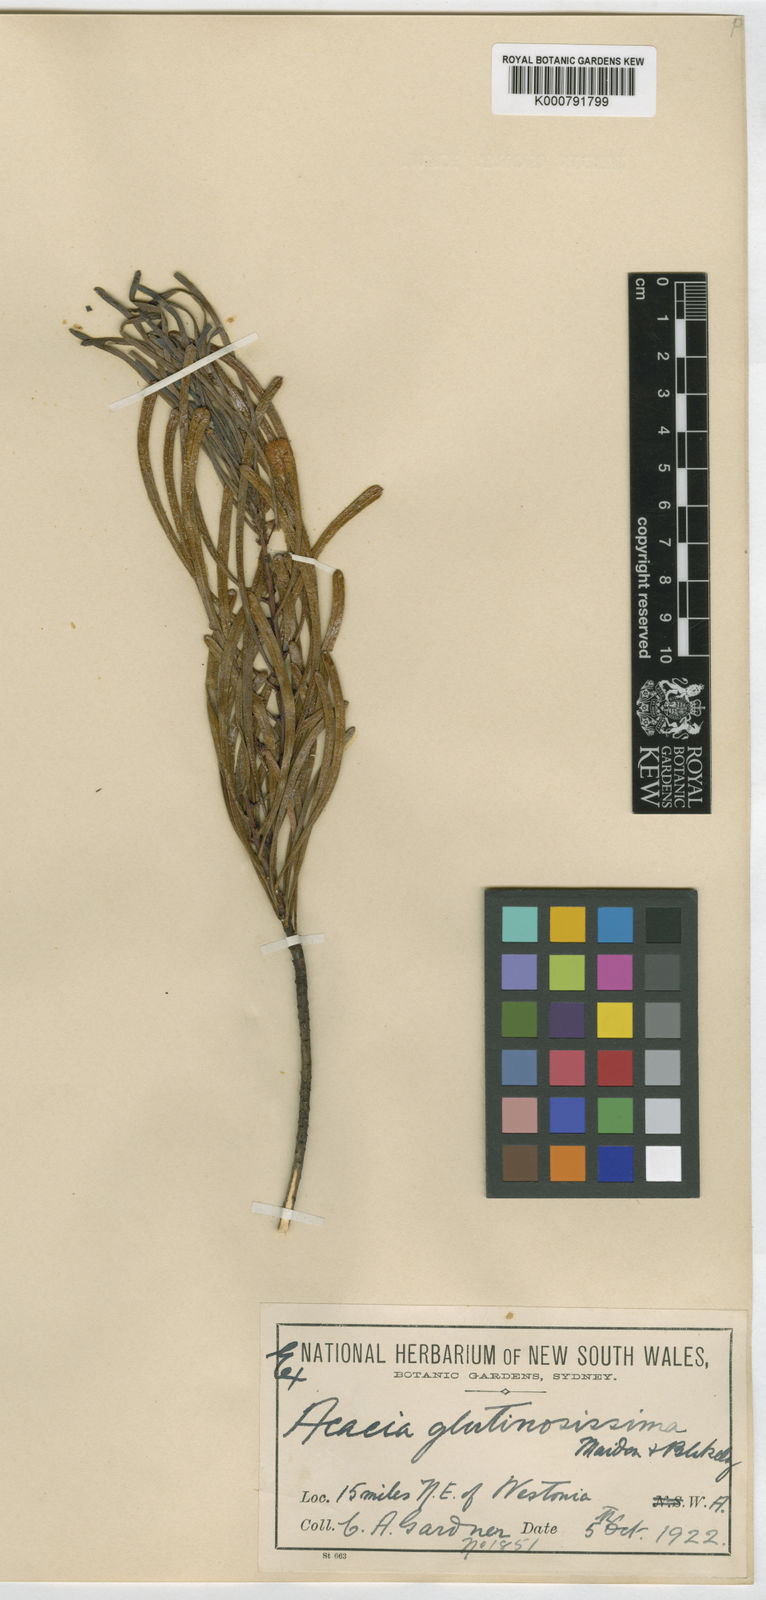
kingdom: Plantae
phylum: Tracheophyta
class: Magnoliopsida
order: Fabales
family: Fabaceae
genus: Acacia
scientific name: Acacia glutinosissima
